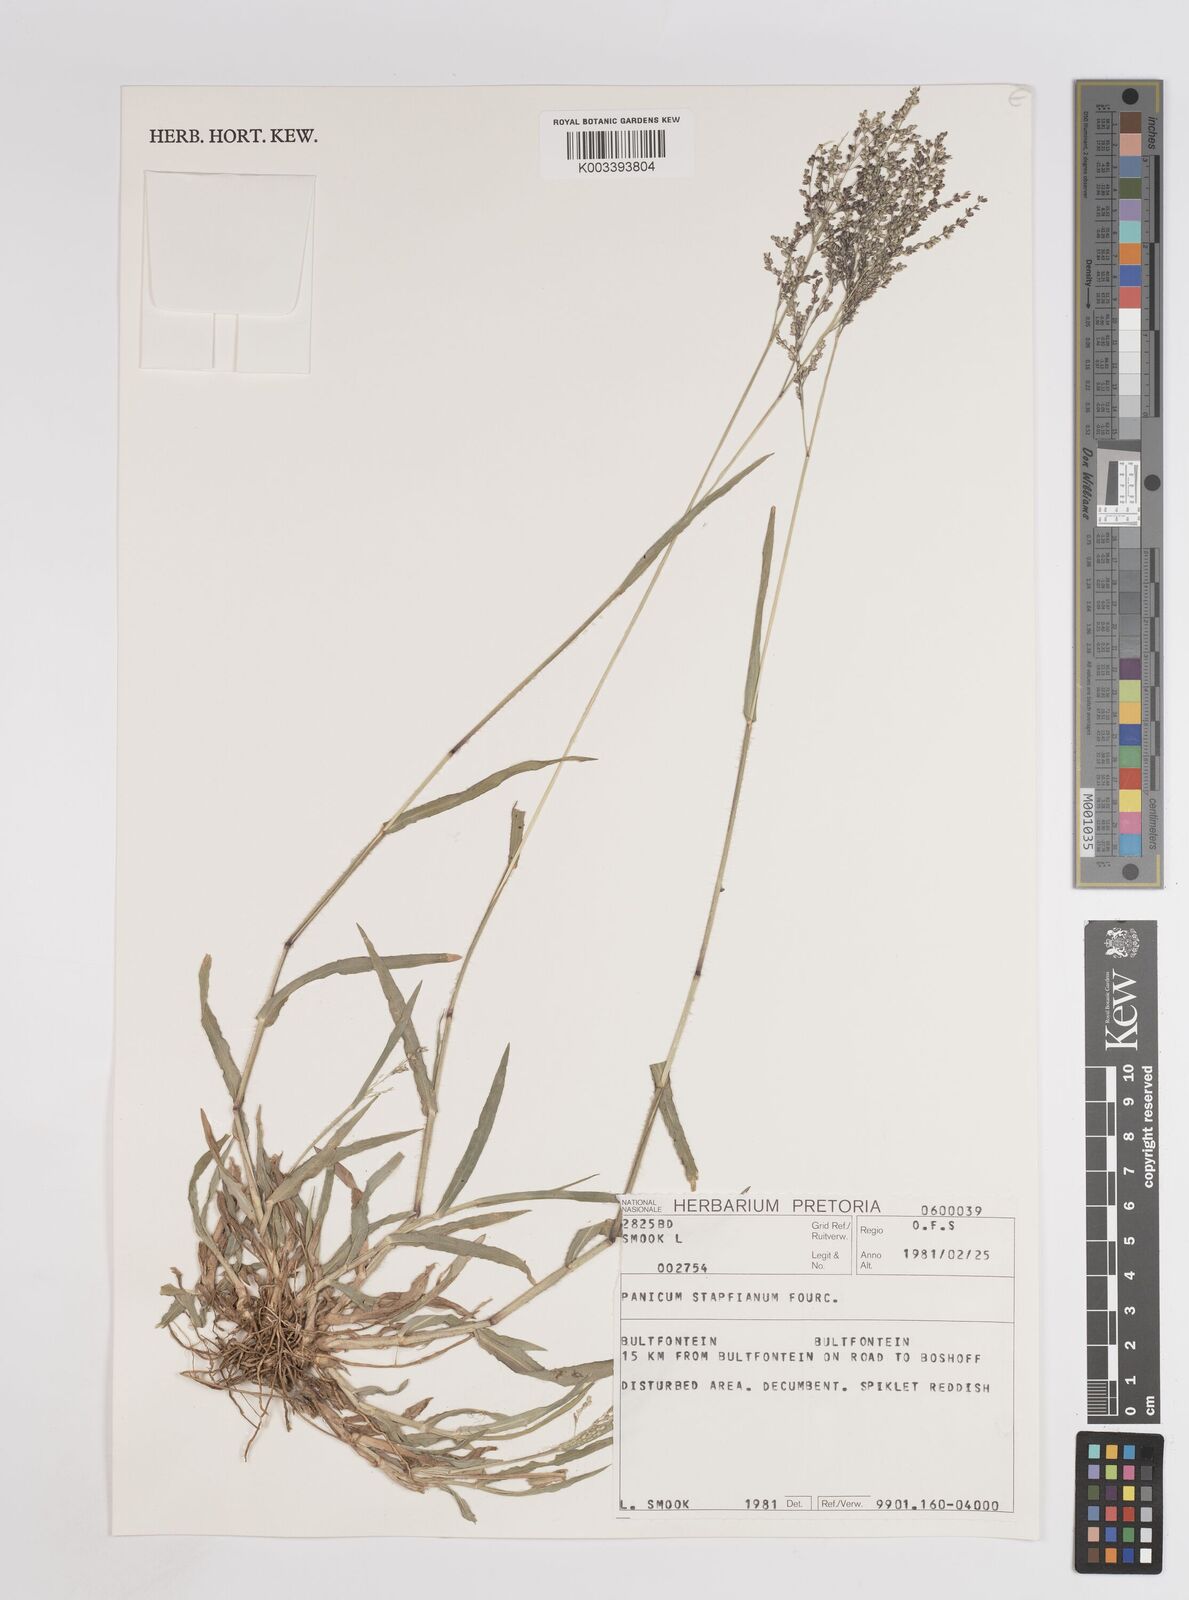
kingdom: Plantae
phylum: Tracheophyta
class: Liliopsida
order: Poales
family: Poaceae
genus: Panicum
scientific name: Panicum novemnerve
